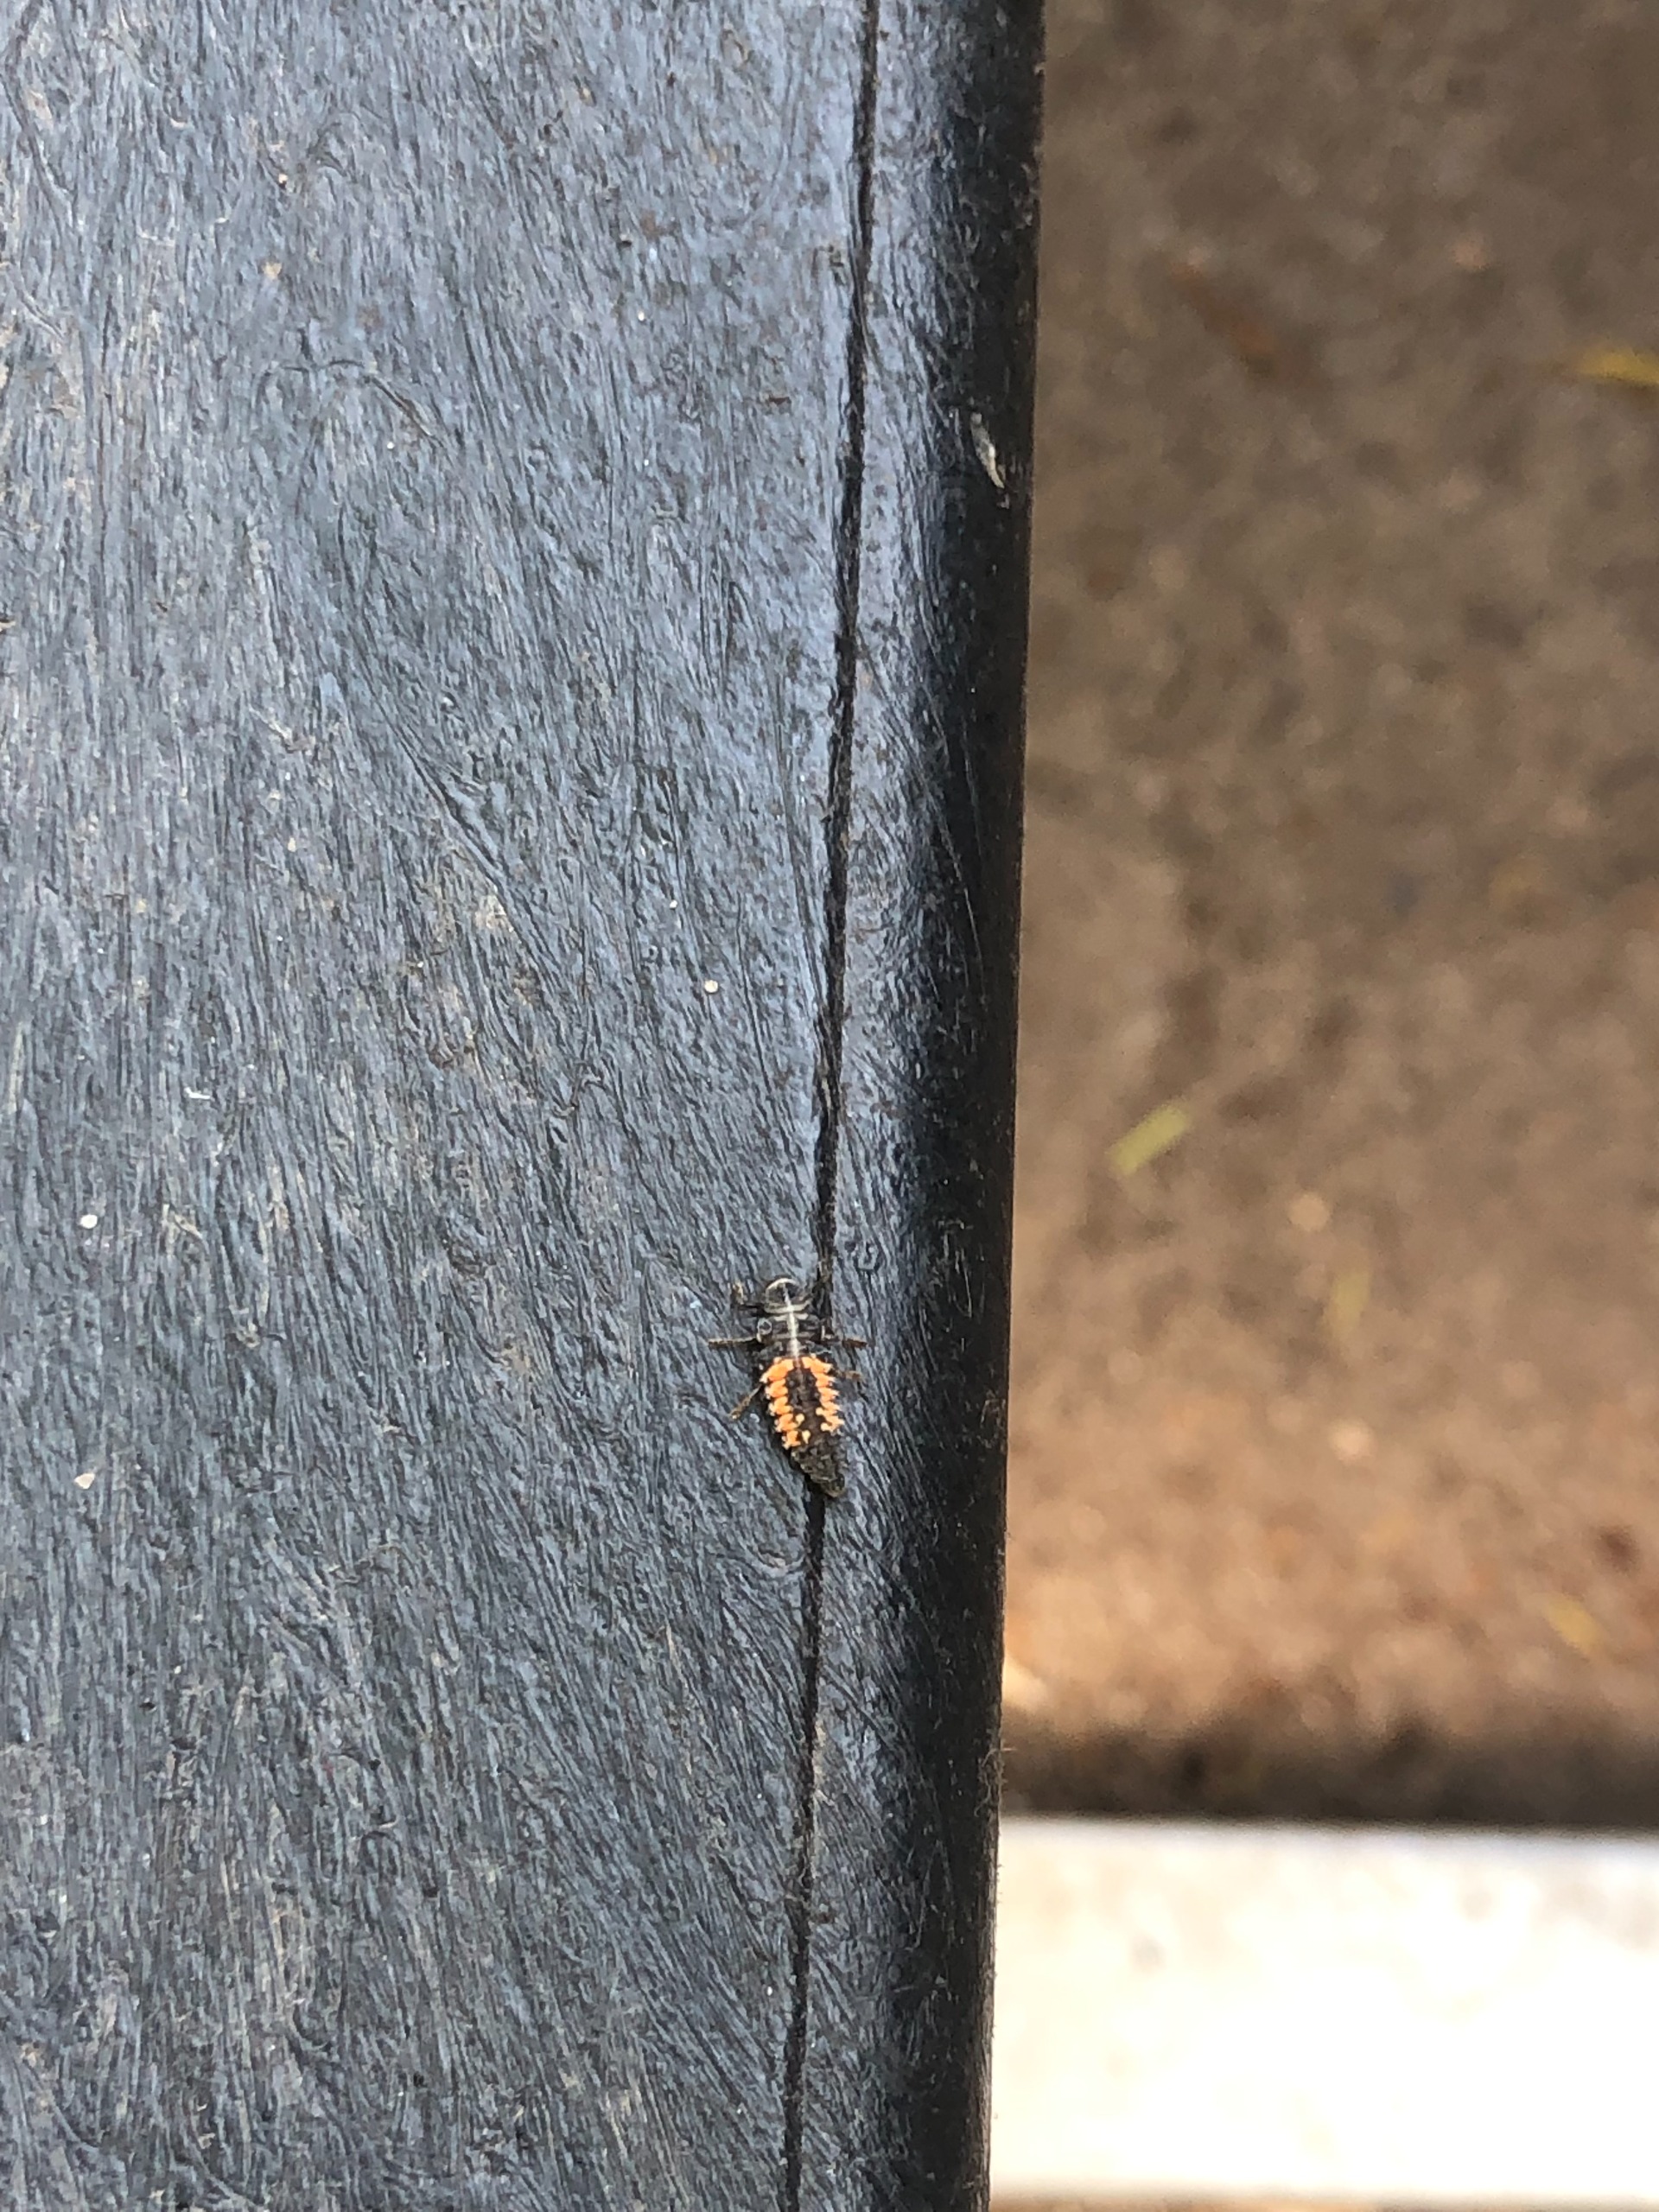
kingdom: Animalia
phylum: Arthropoda
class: Insecta
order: Coleoptera
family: Coccinellidae
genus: Harmonia
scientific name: Harmonia axyridis
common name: Harlekinmariehøne
